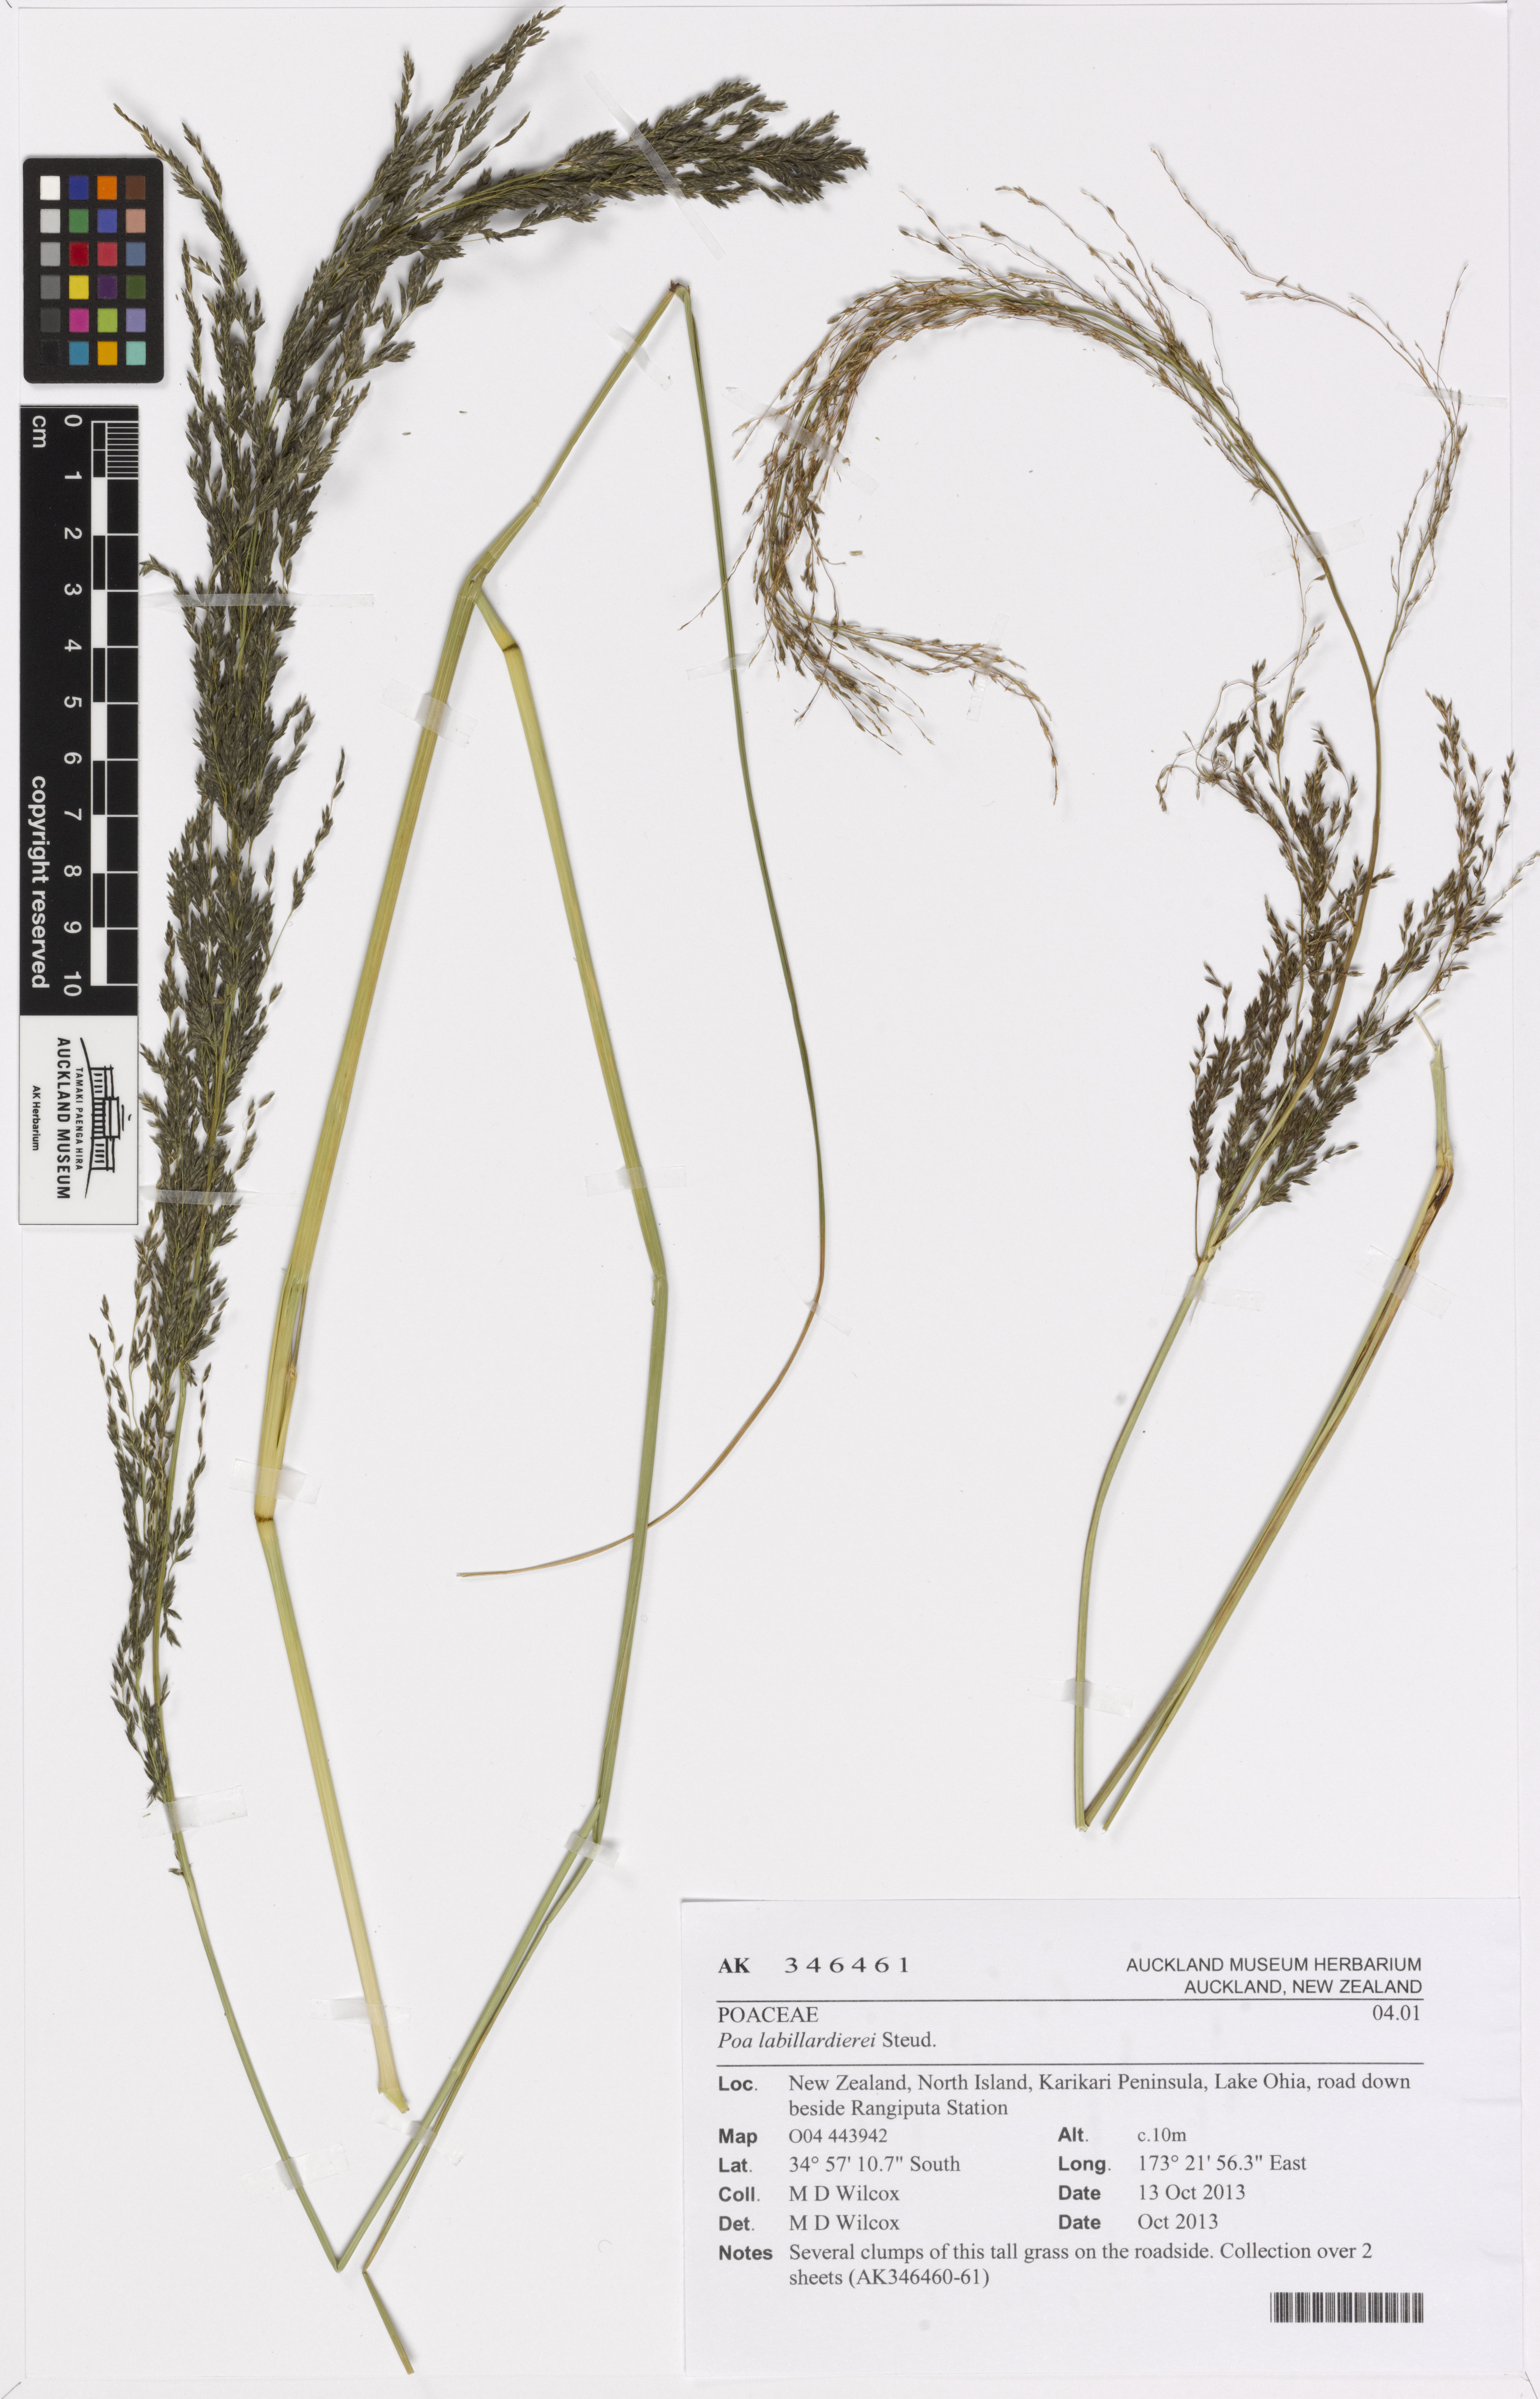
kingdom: Plantae
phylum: Tracheophyta
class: Liliopsida
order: Poales
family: Poaceae
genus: Eragrostis
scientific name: Eragrostis curvula
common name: African love-grass
